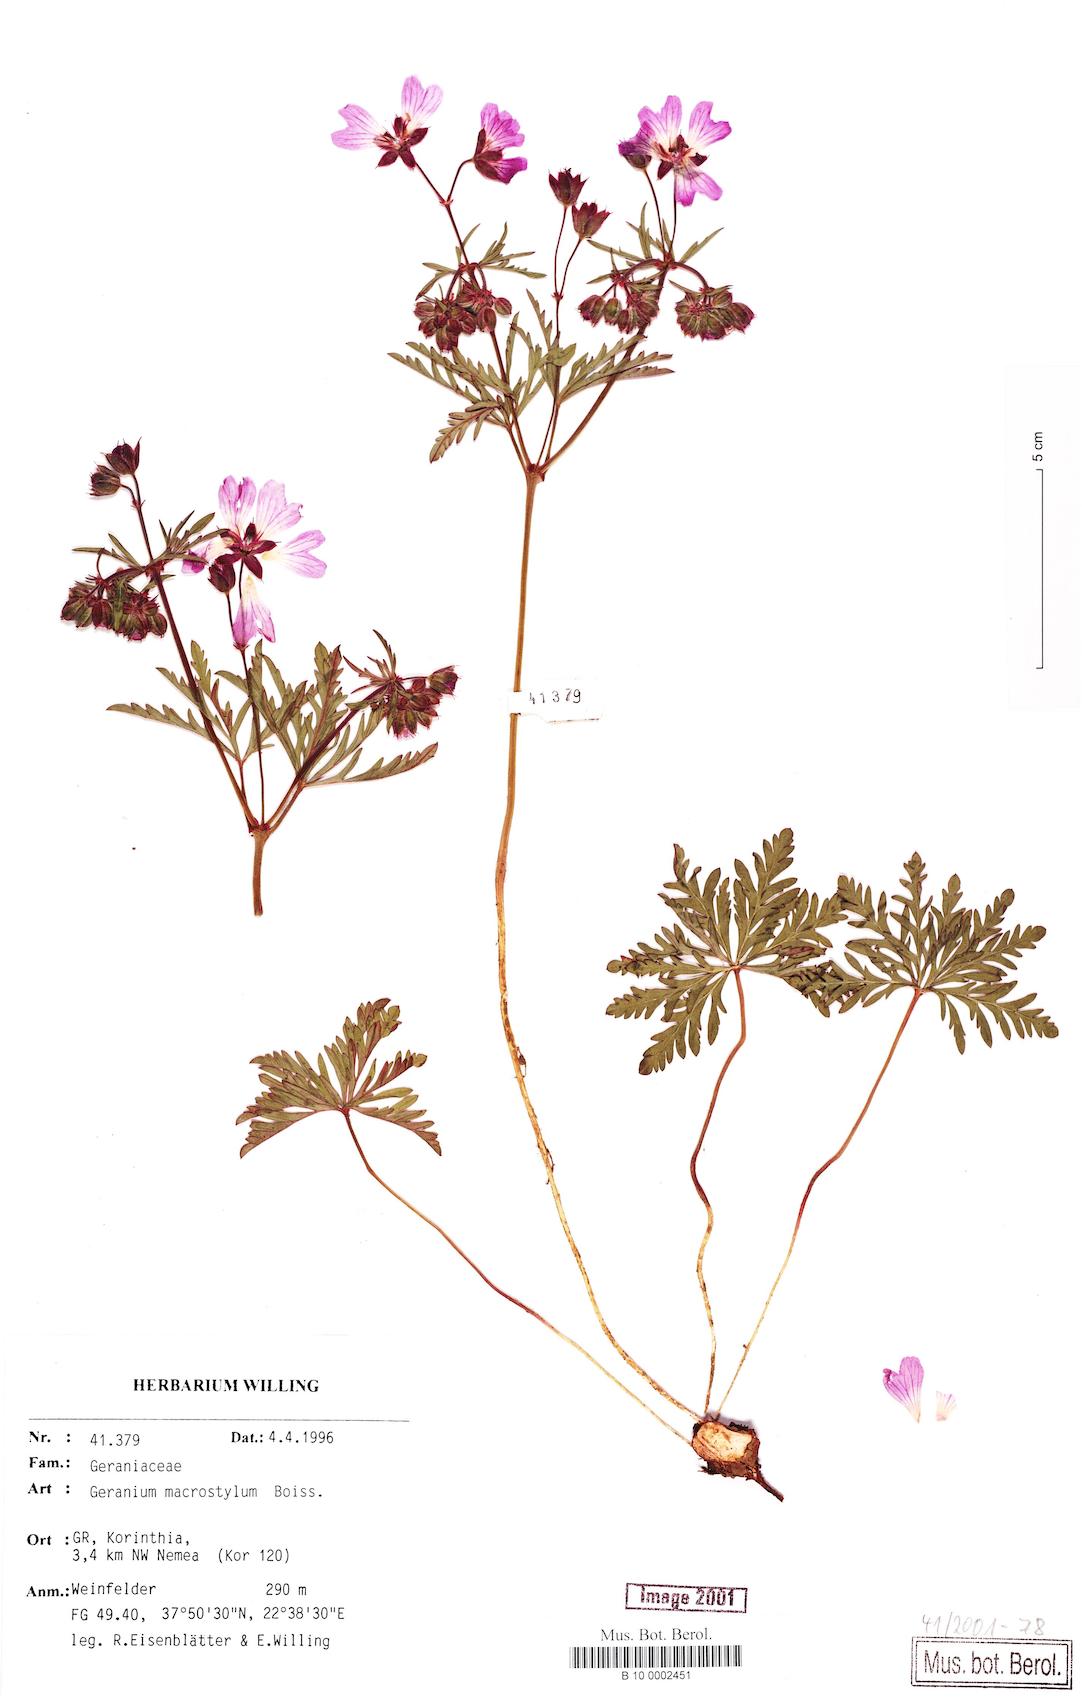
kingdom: Plantae
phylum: Tracheophyta
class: Magnoliopsida
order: Geraniales
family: Geraniaceae
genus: Geranium
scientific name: Geranium macrostylum
